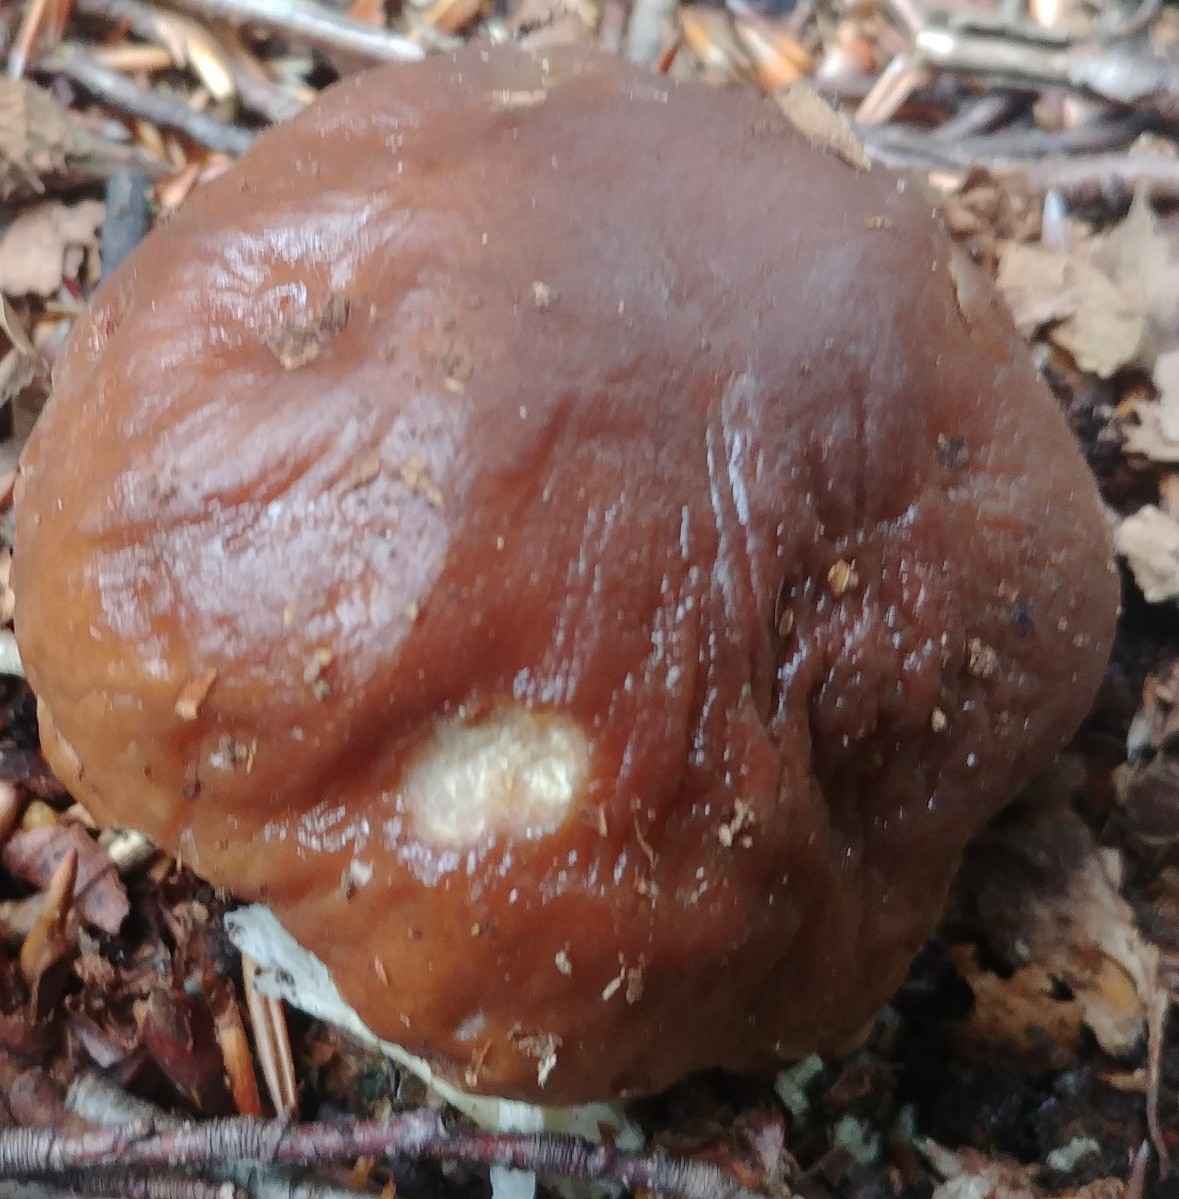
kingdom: Fungi
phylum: Basidiomycota
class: Agaricomycetes
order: Boletales
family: Boletaceae
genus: Boletus
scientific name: Boletus edulis
